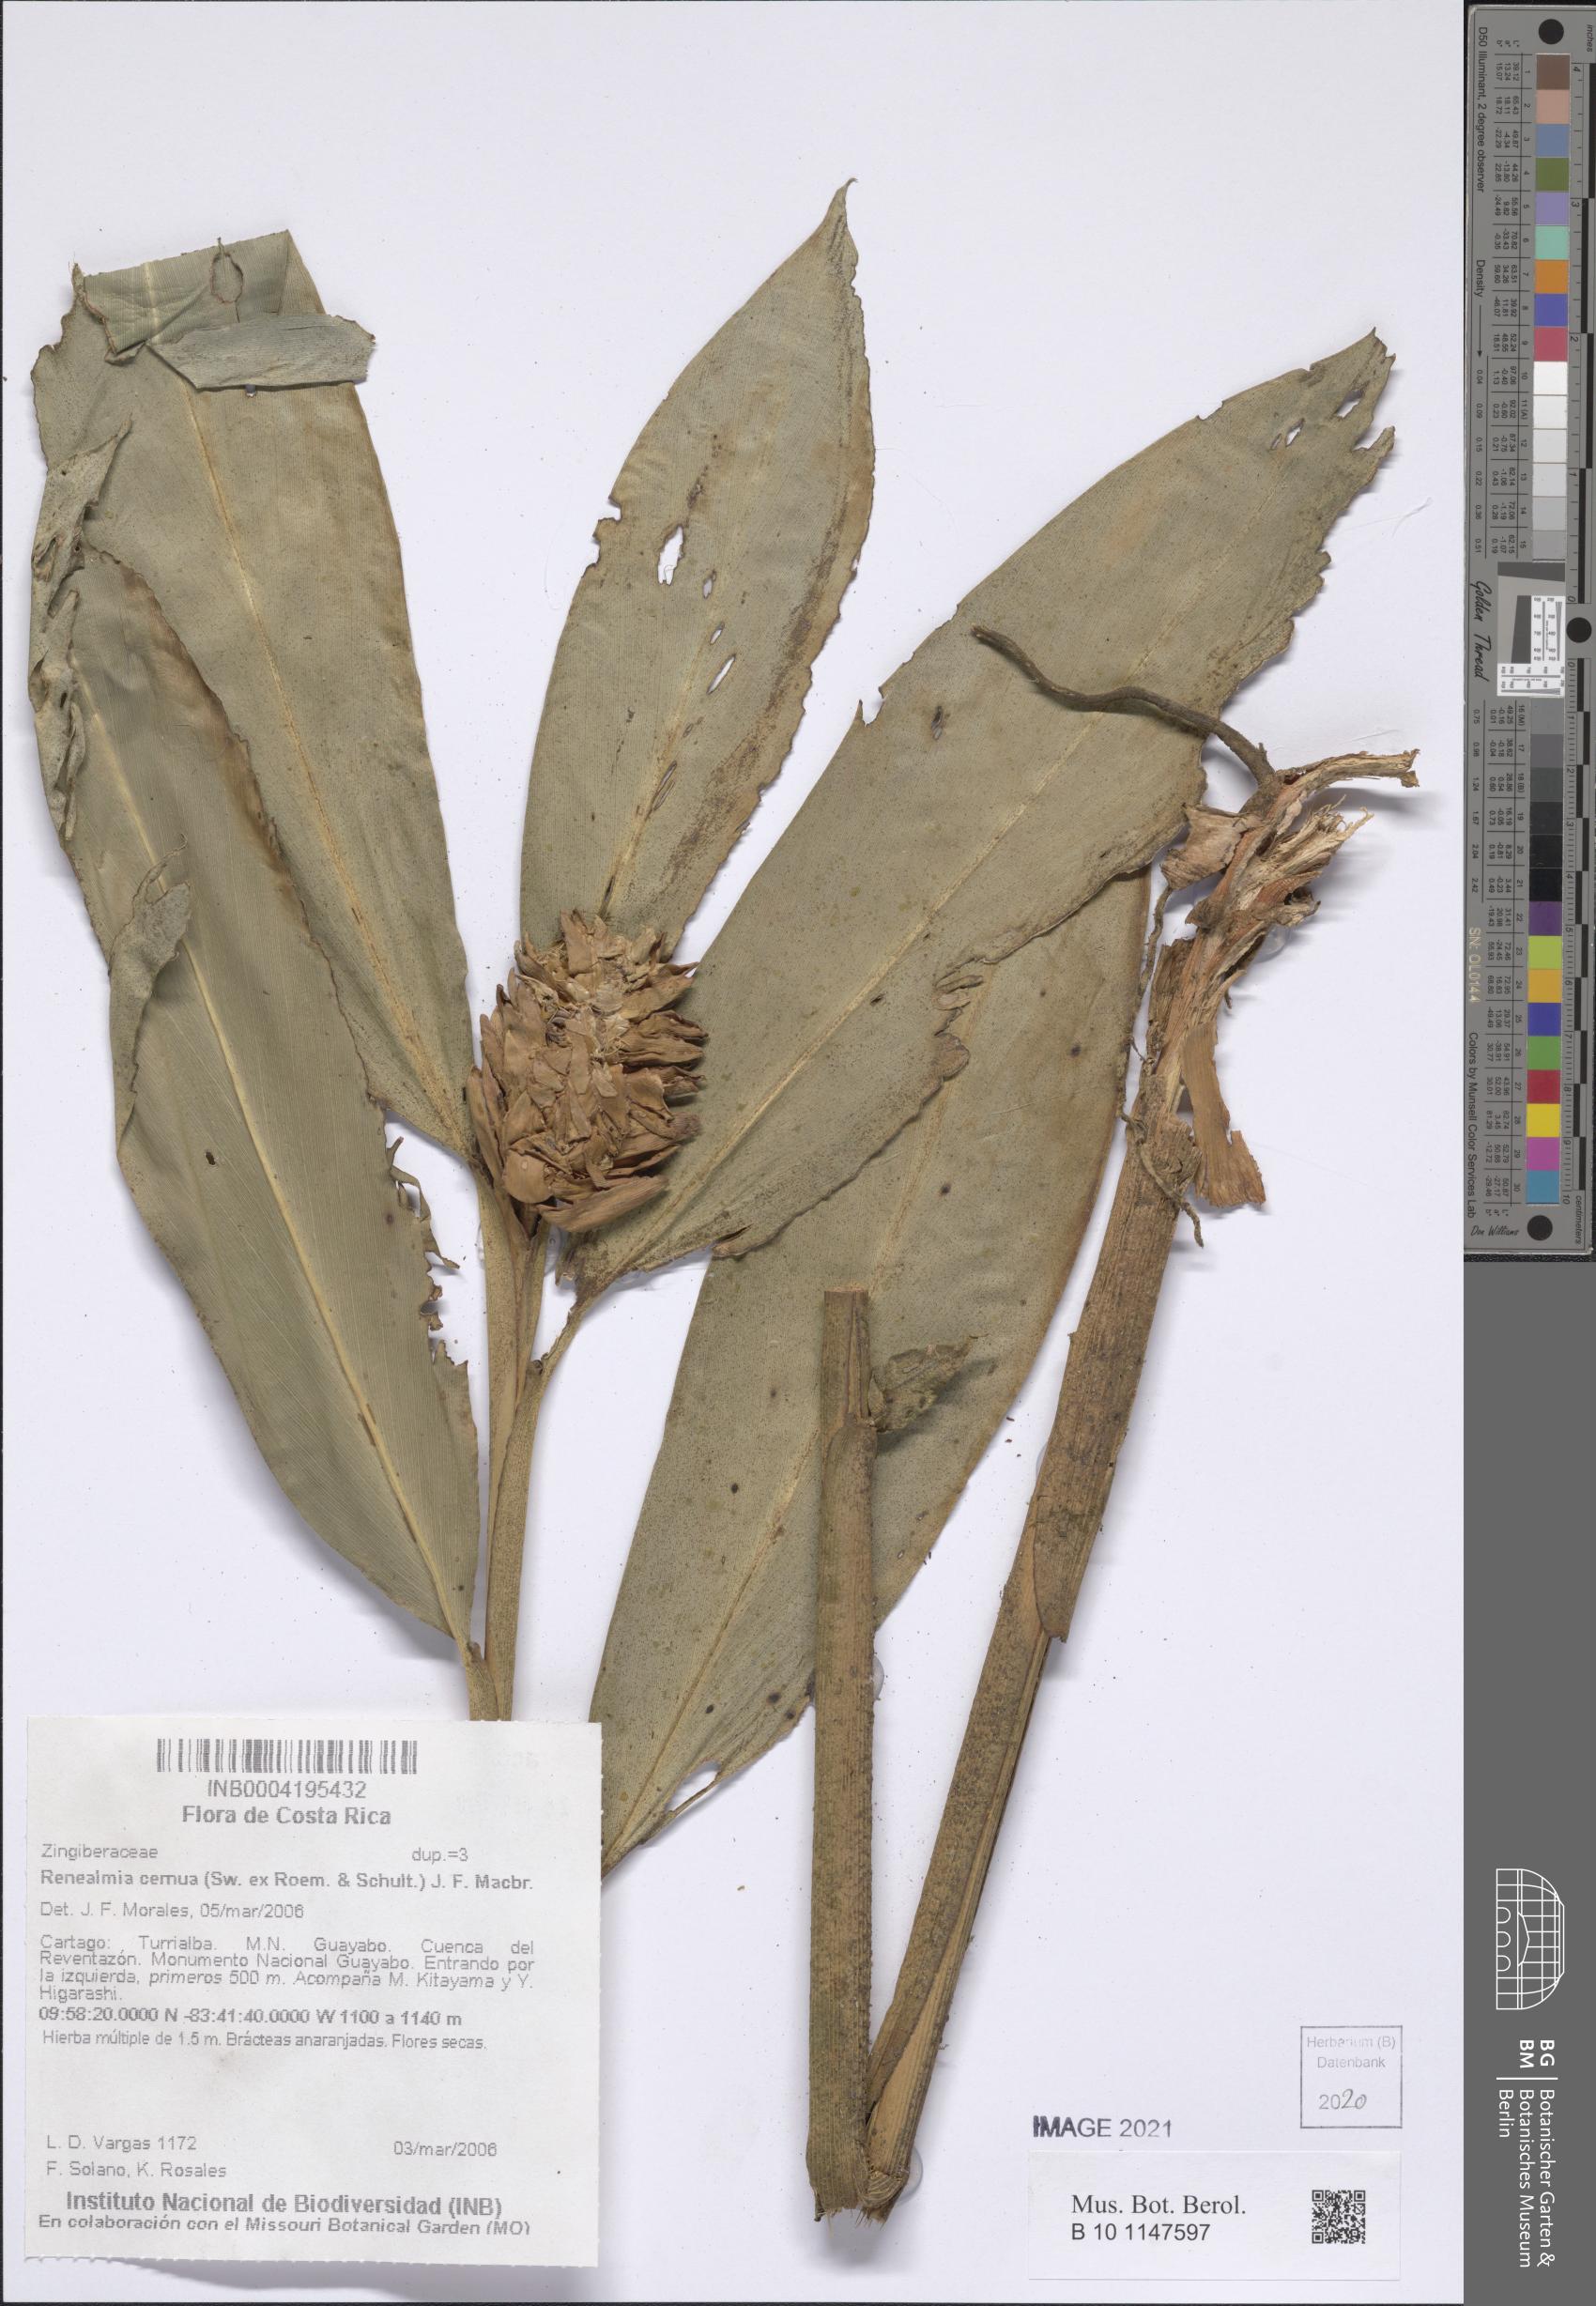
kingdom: Plantae
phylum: Tracheophyta
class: Liliopsida
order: Zingiberales
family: Zingiberaceae
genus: Renealmia
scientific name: Renealmia cernua
